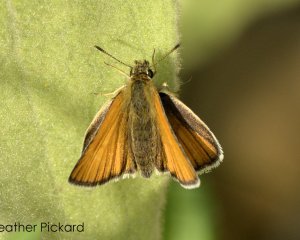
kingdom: Animalia
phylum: Arthropoda
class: Insecta
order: Lepidoptera
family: Hesperiidae
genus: Thymelicus
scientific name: Thymelicus lineola
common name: European Skipper
